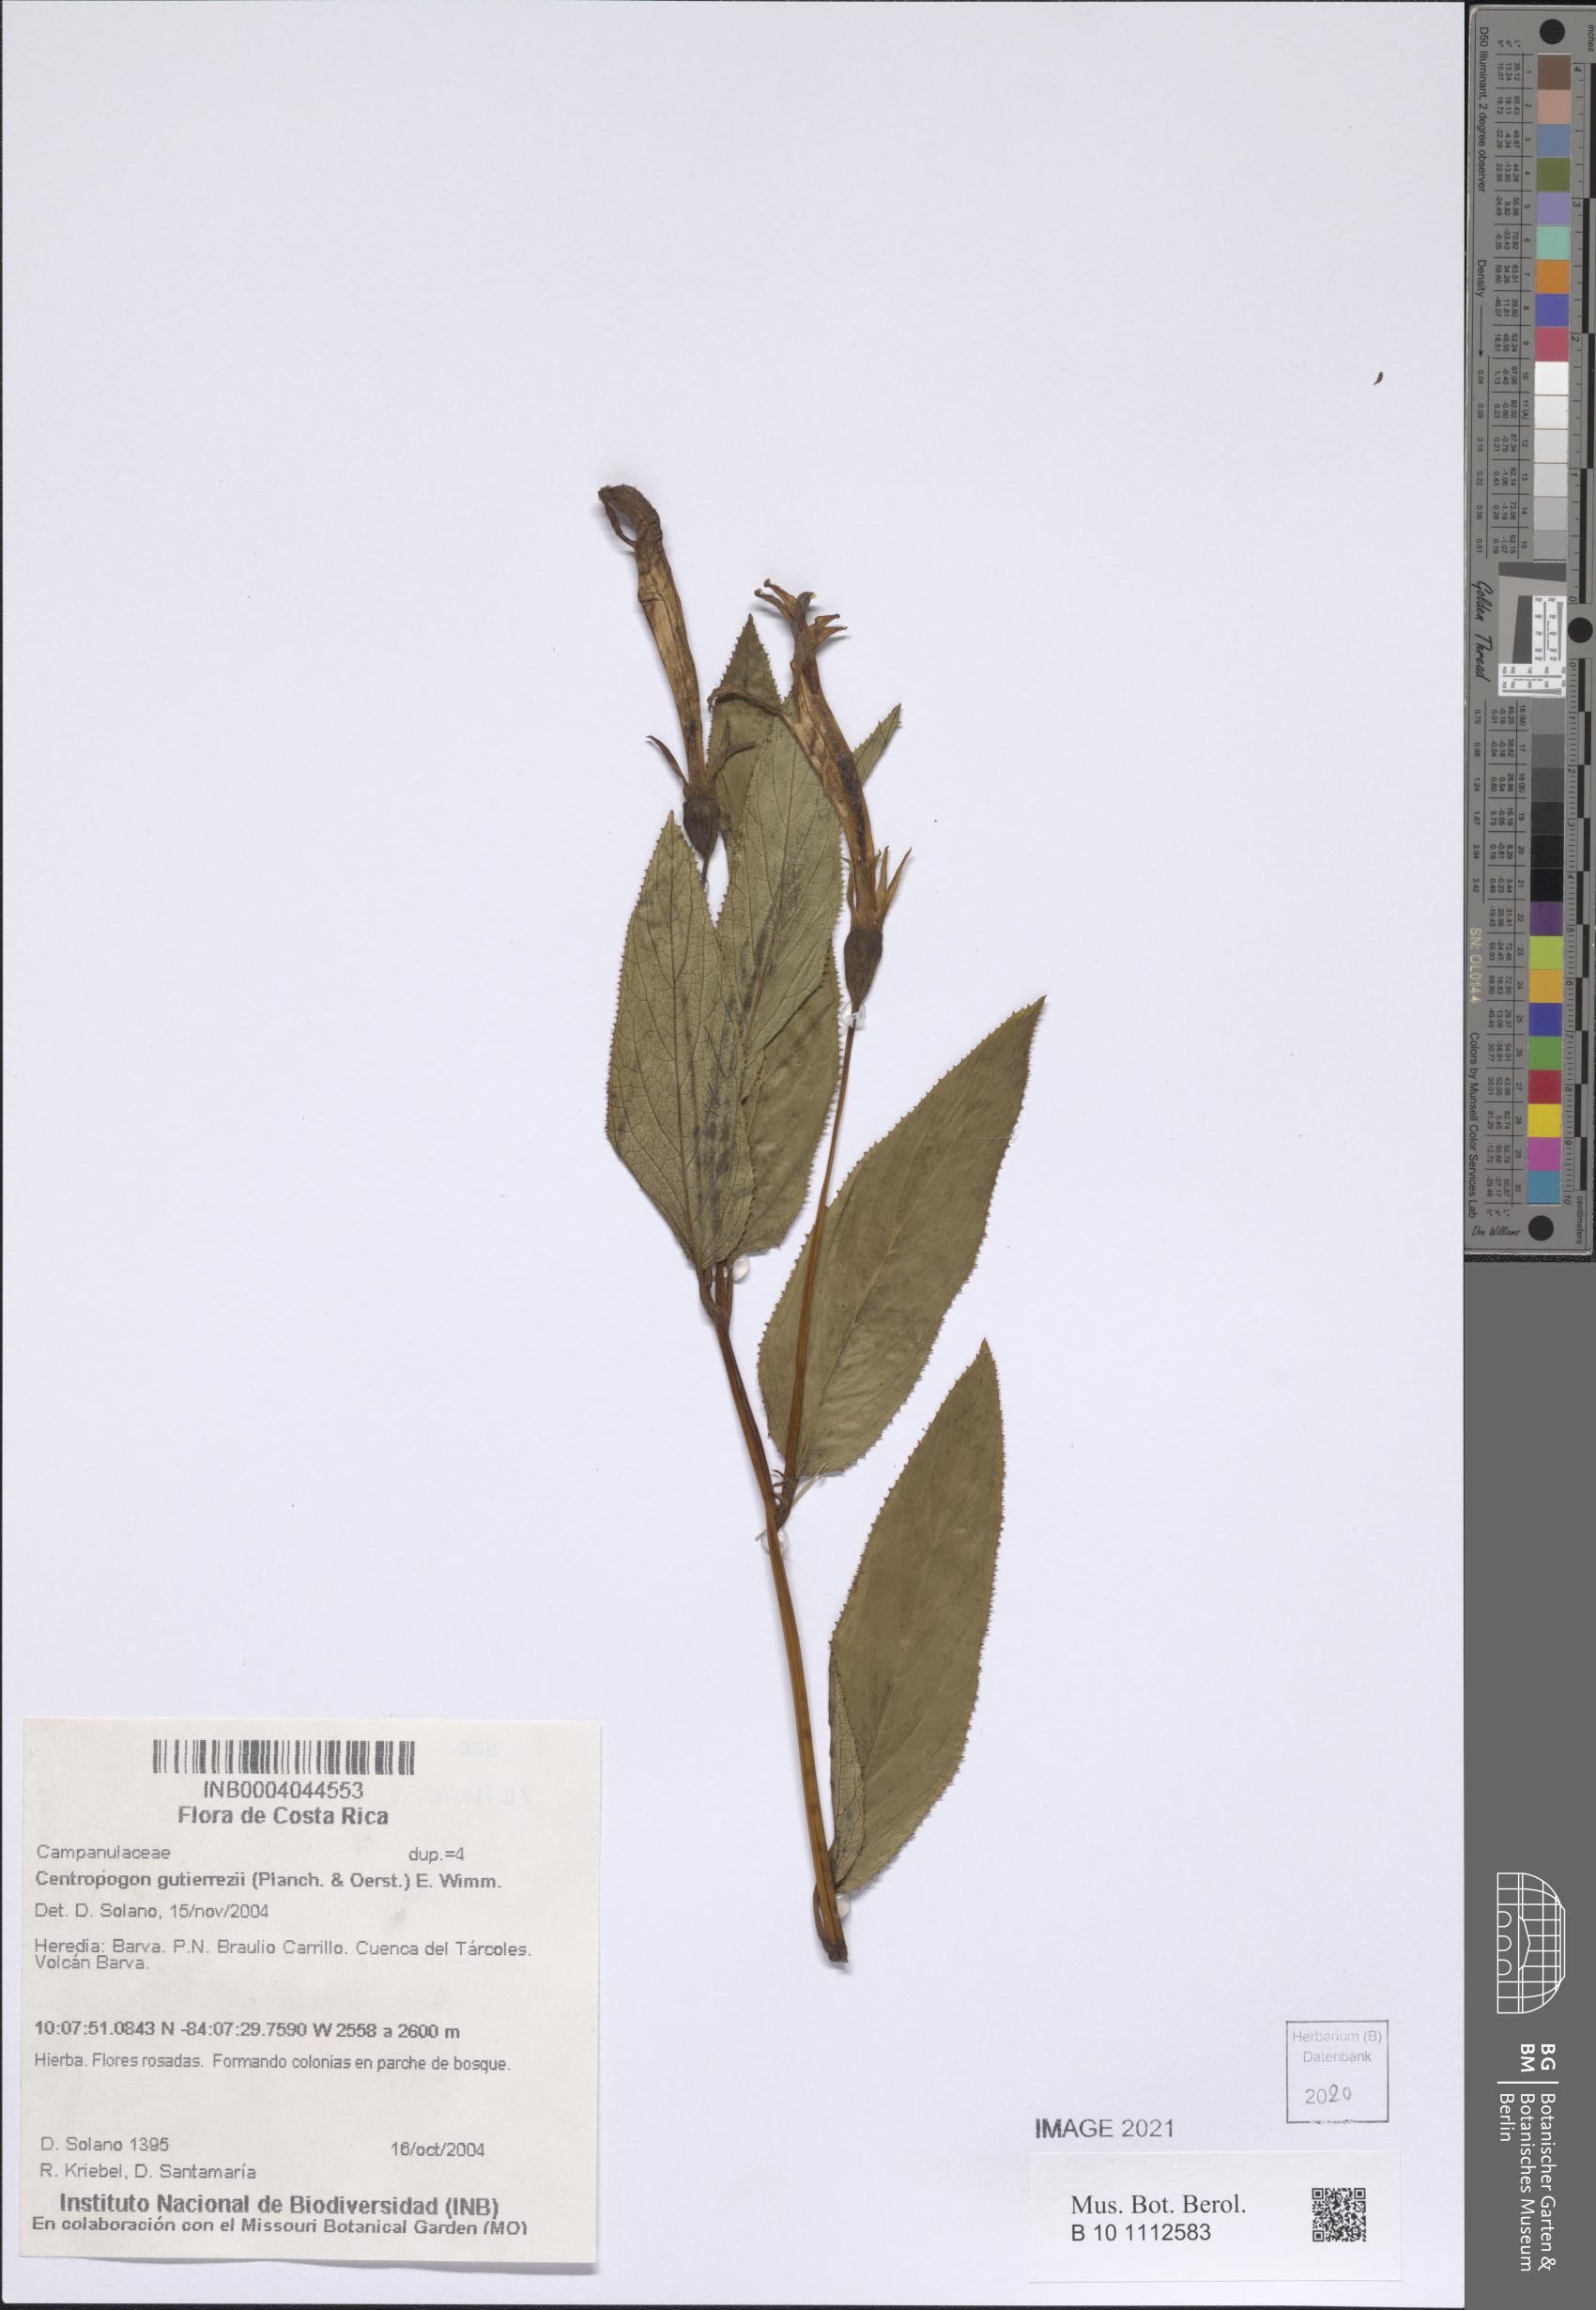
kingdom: Plantae
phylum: Tracheophyta
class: Magnoliopsida
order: Asterales
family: Campanulaceae
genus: Centropogon
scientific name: Centropogon gutierrezii
